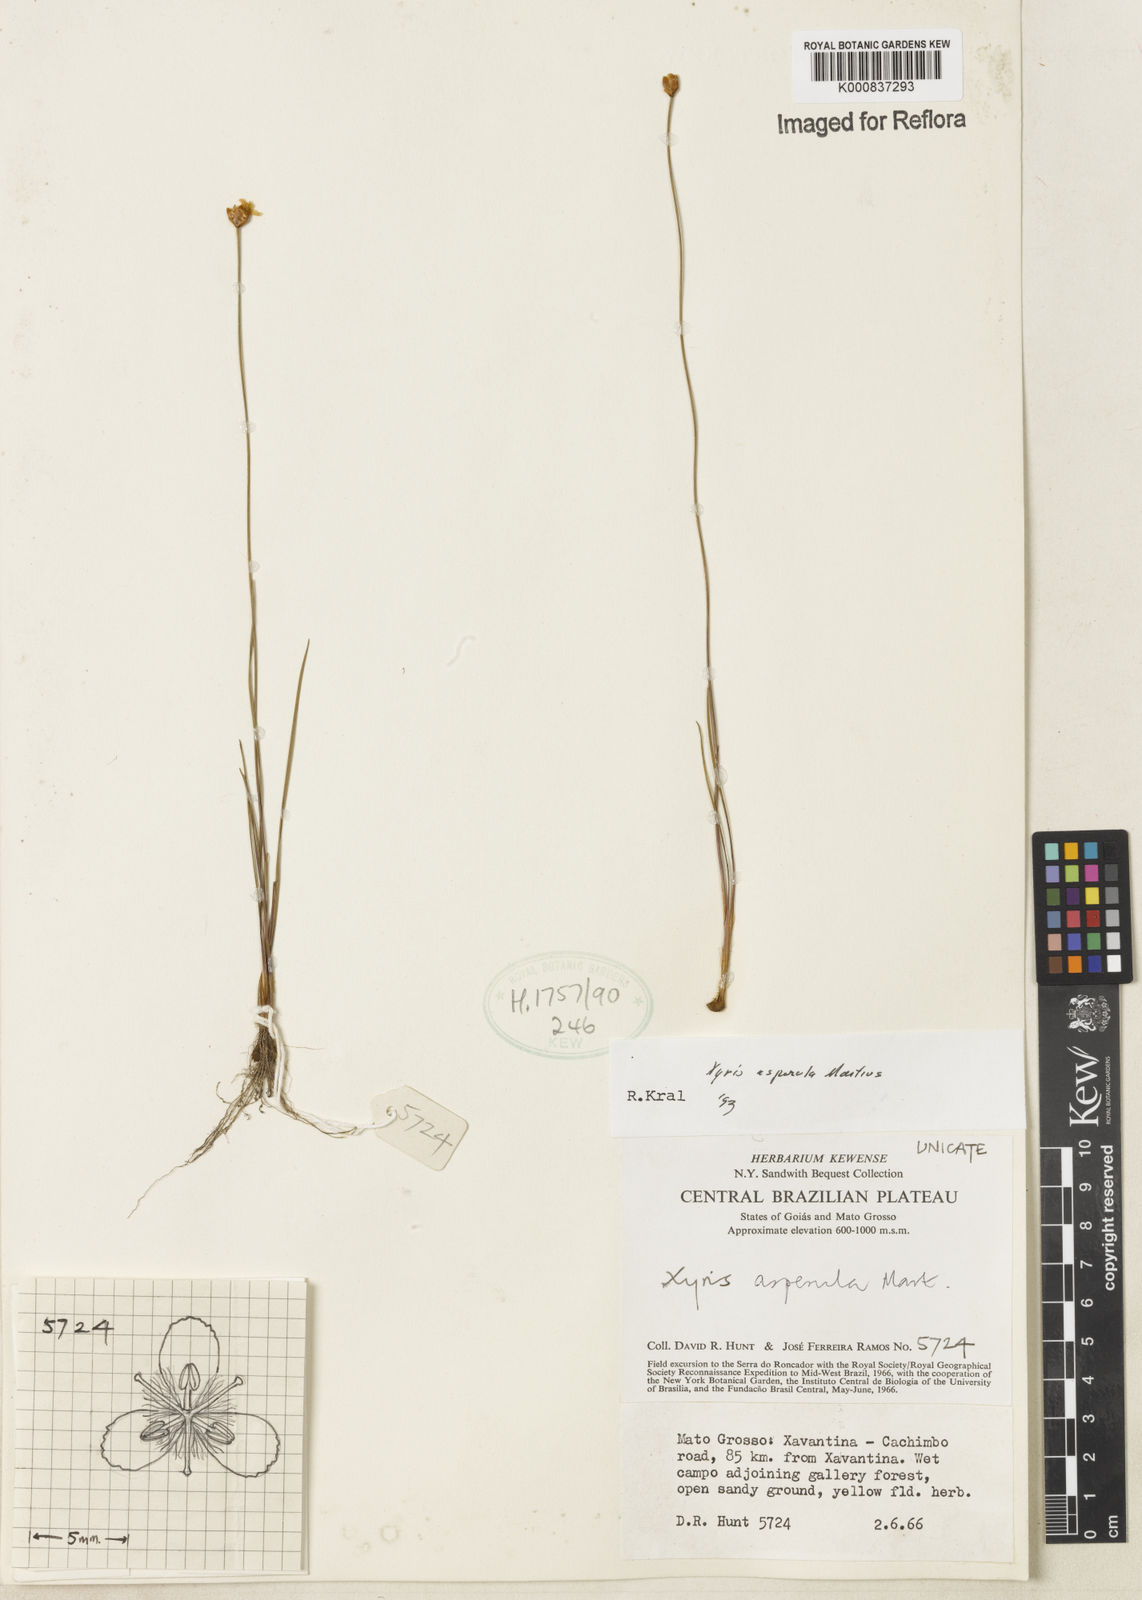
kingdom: Plantae
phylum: Tracheophyta
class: Liliopsida
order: Poales
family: Xyridaceae
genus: Xyris
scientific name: Xyris asperula
